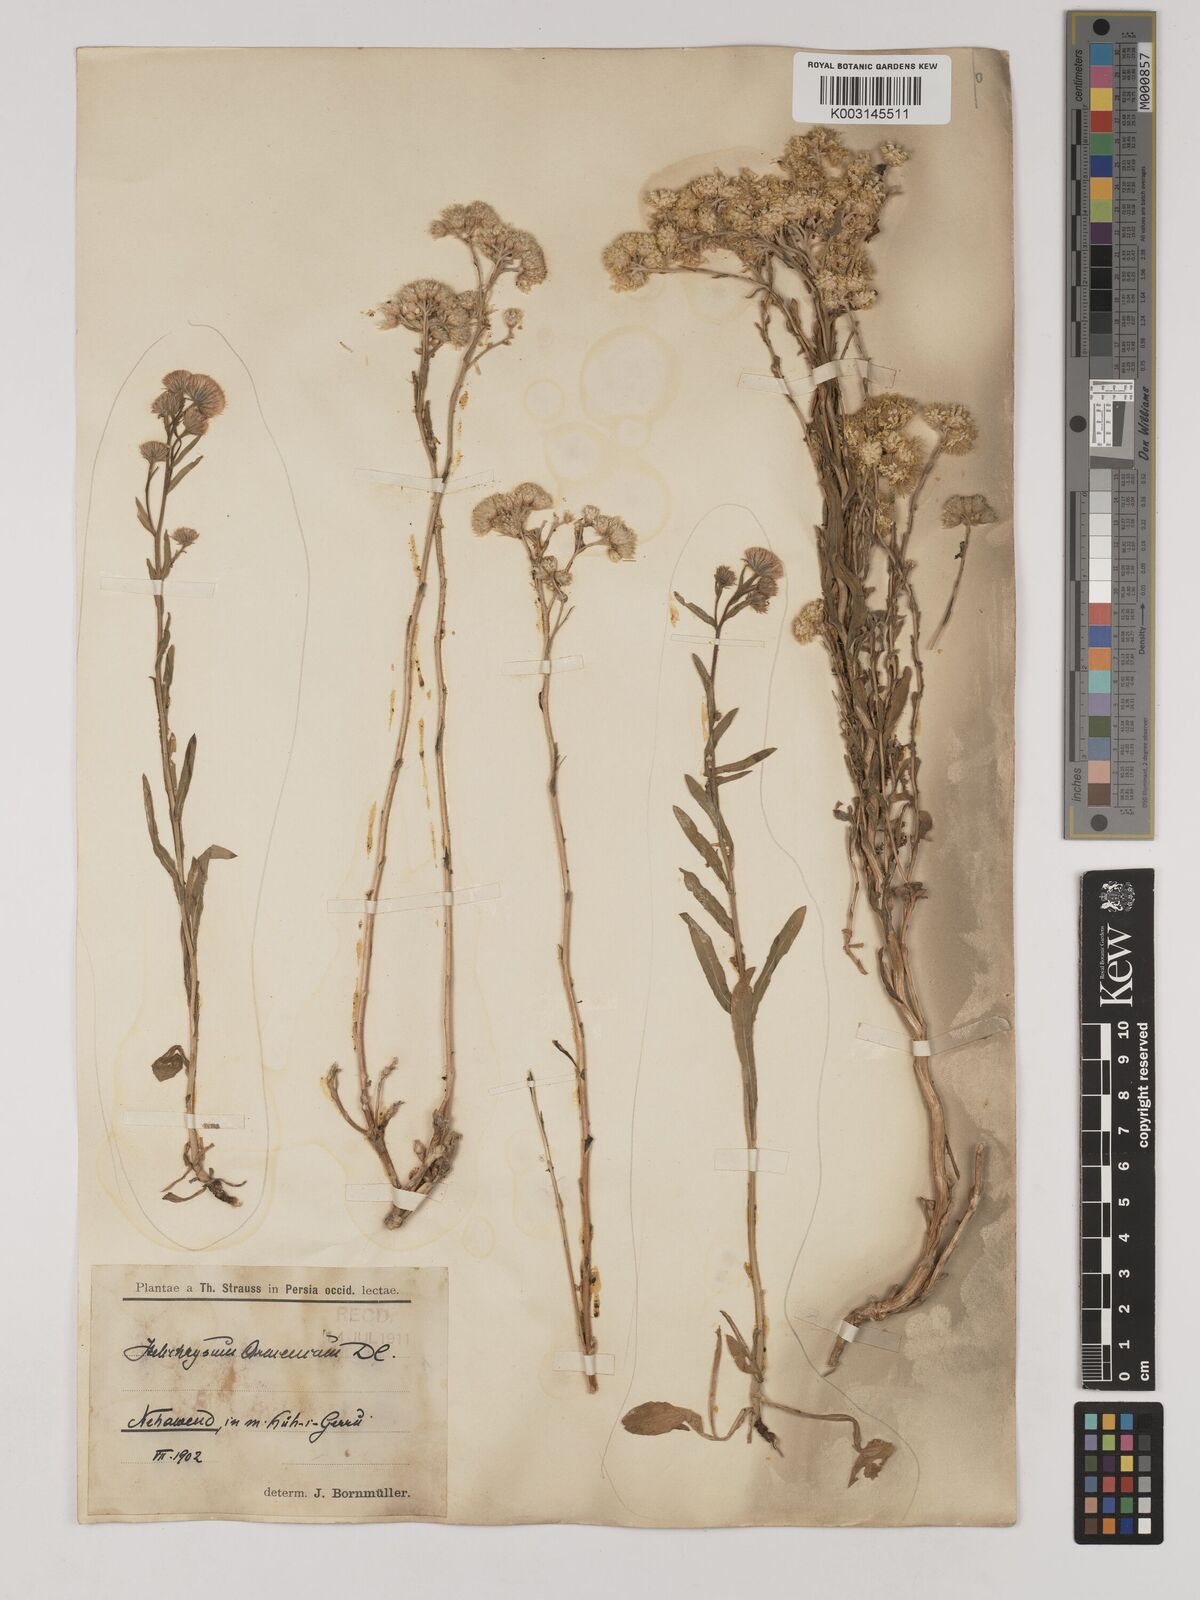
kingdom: Plantae
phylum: Tracheophyta
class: Magnoliopsida
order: Asterales
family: Asteraceae
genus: Helichrysum
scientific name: Helichrysum armenium
